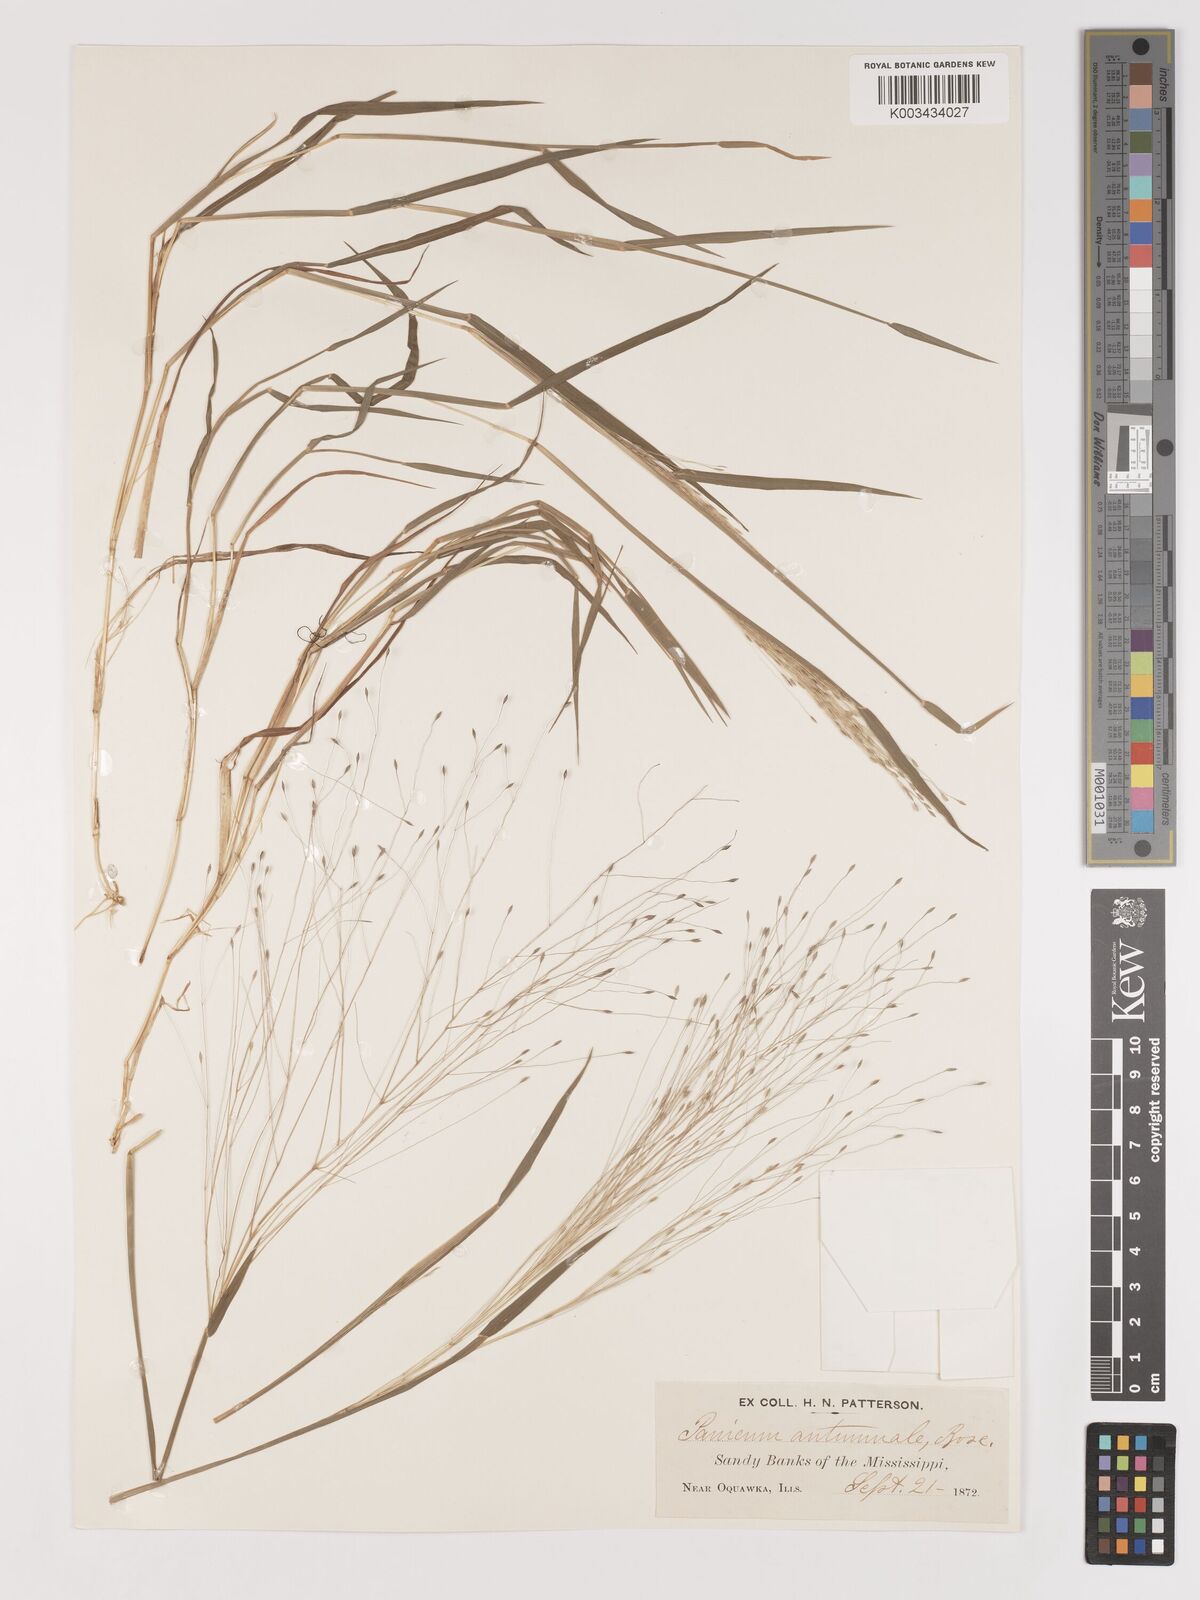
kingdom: Plantae
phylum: Tracheophyta
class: Liliopsida
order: Poales
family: Poaceae
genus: Digitaria
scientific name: Digitaria cognata
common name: Fall witchgrass
